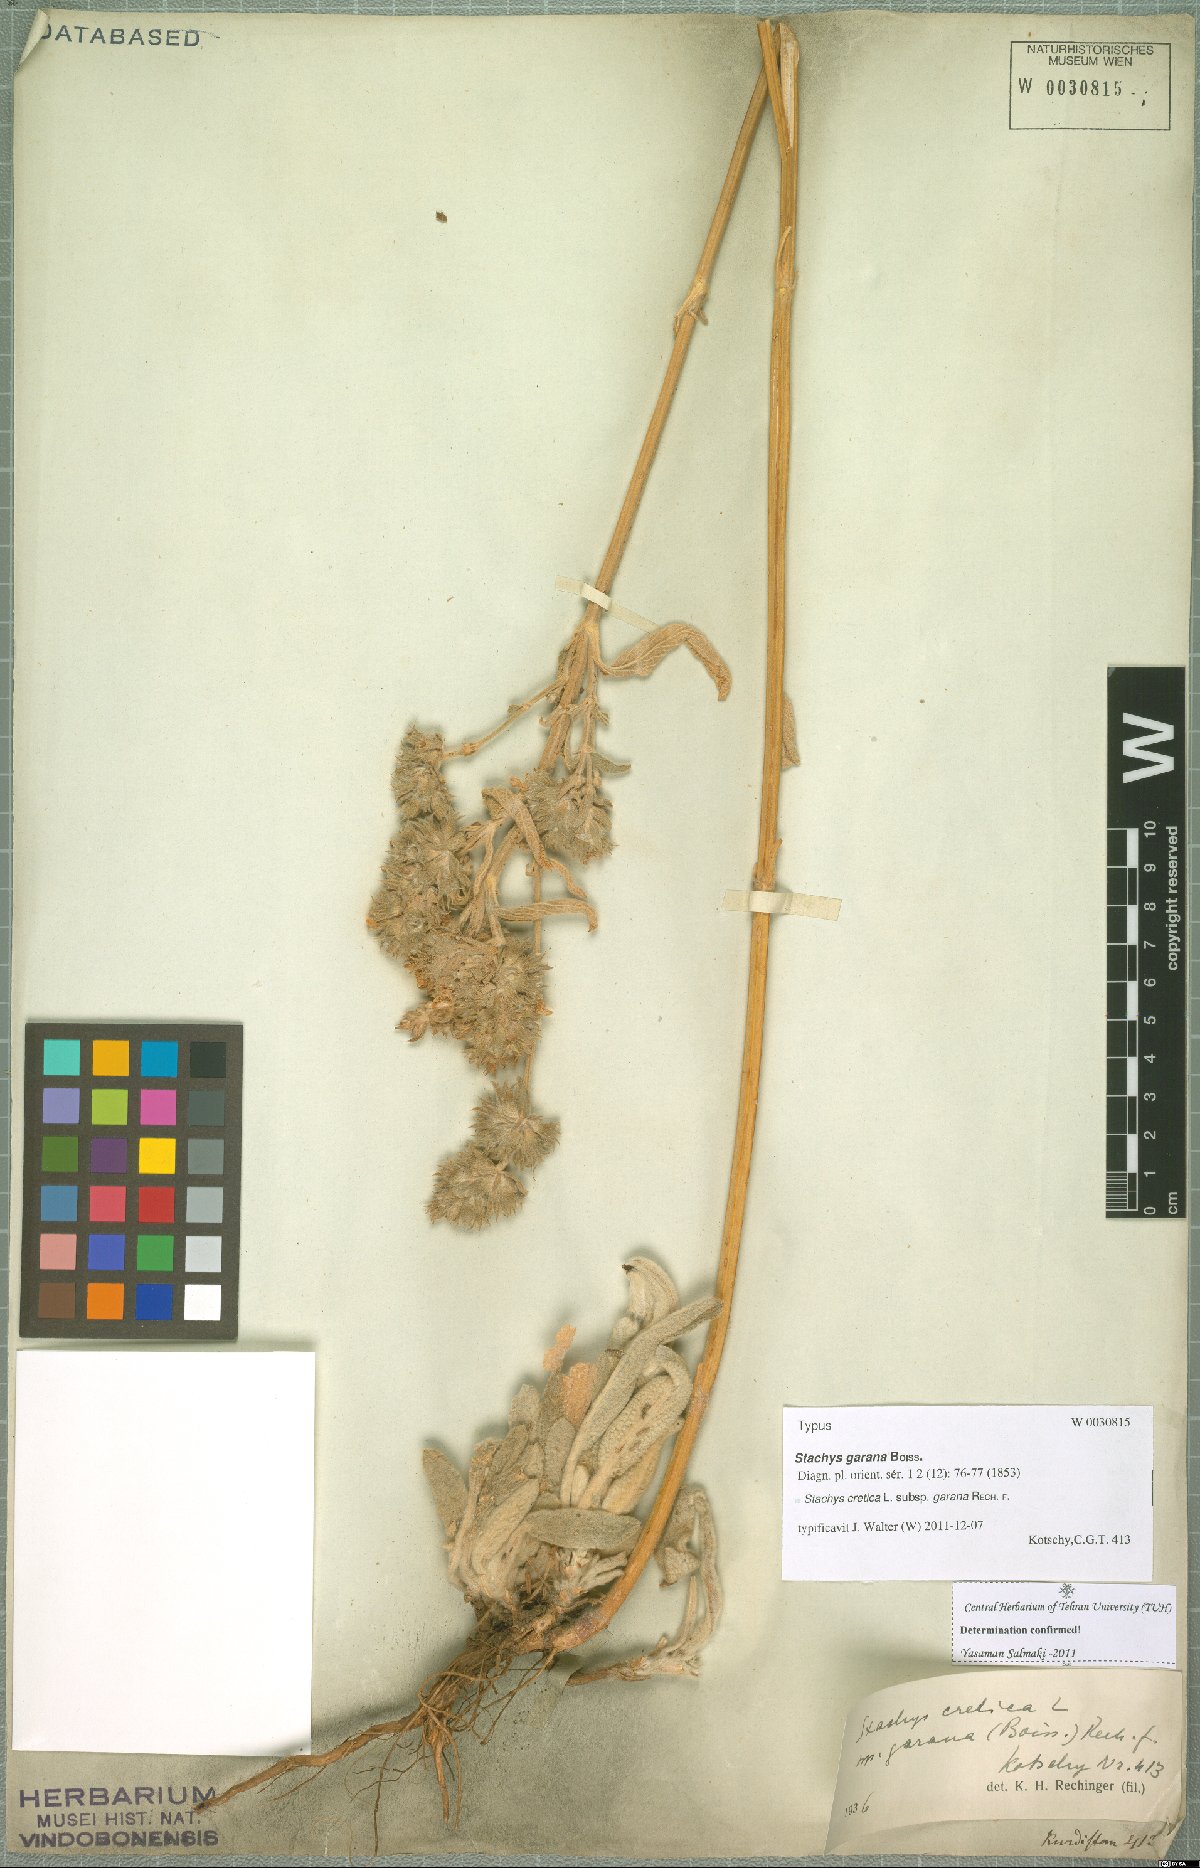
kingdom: Plantae
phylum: Tracheophyta
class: Magnoliopsida
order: Lamiales
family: Lamiaceae
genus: Stachys
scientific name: Stachys cretica
